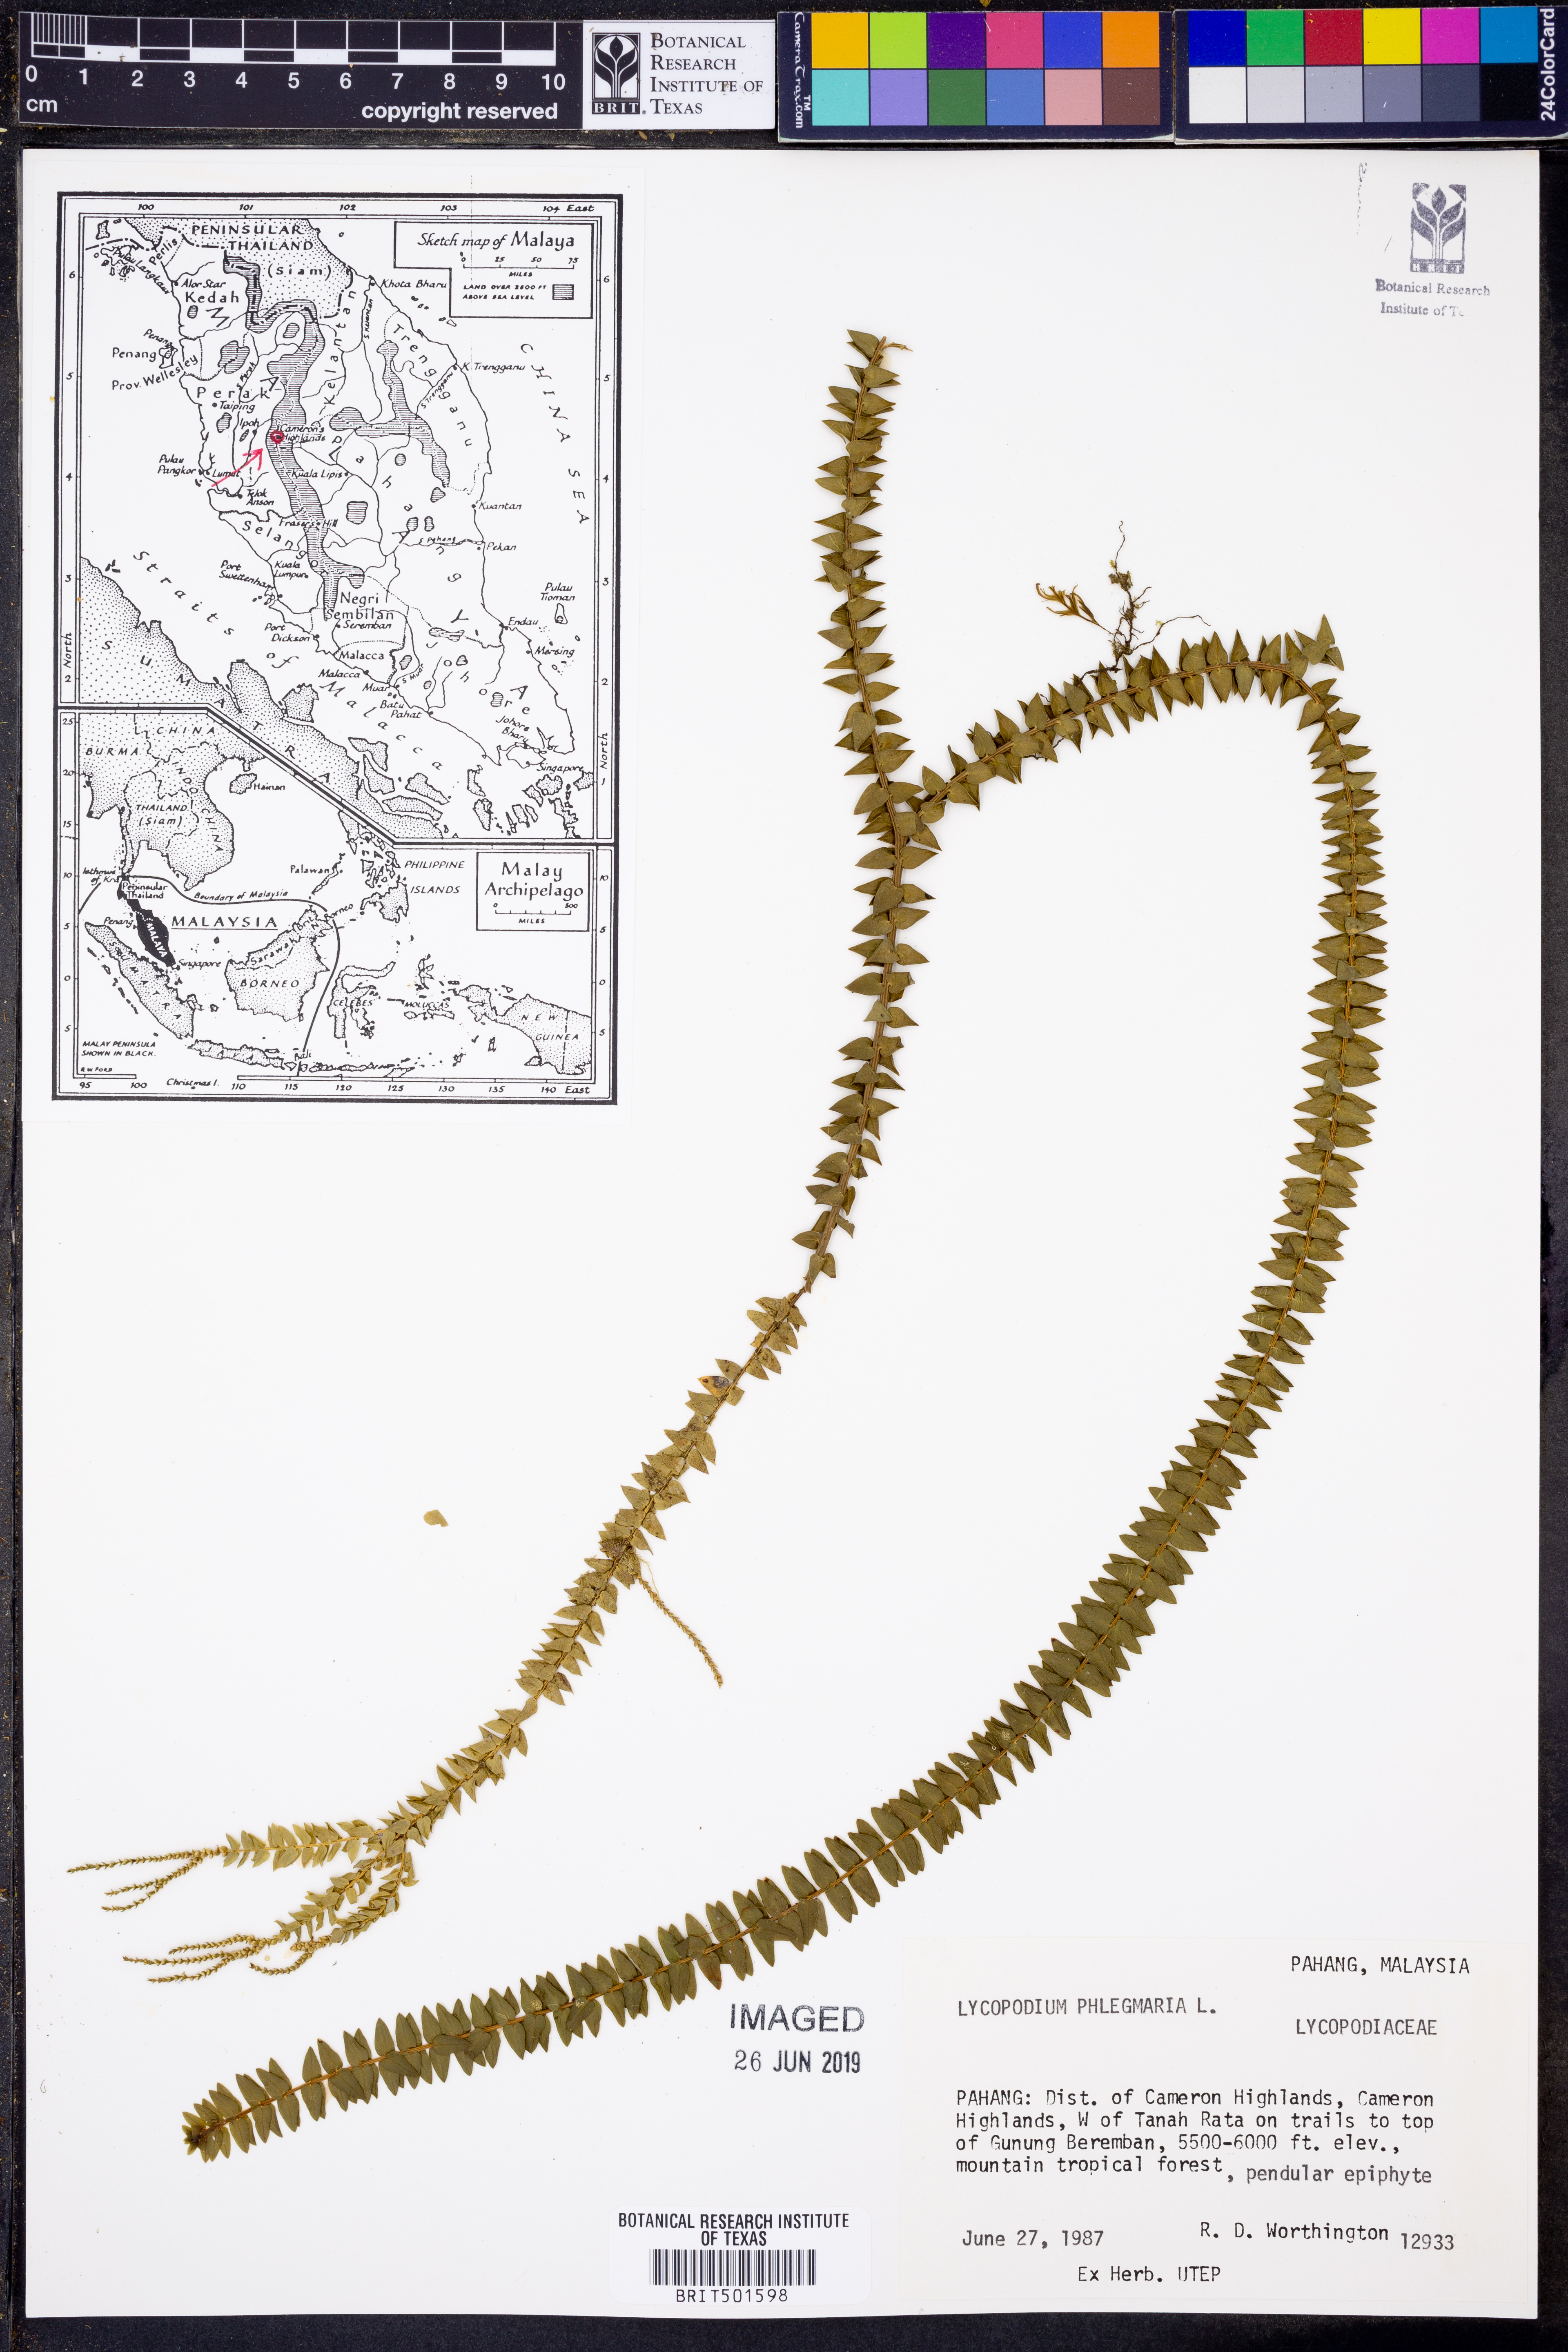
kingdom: Plantae
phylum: Tracheophyta
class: Lycopodiopsida
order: Lycopodiales
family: Lycopodiaceae
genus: Phlegmariurus
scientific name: Phlegmariurus phlegmaria
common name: Coarse tassel-fern
